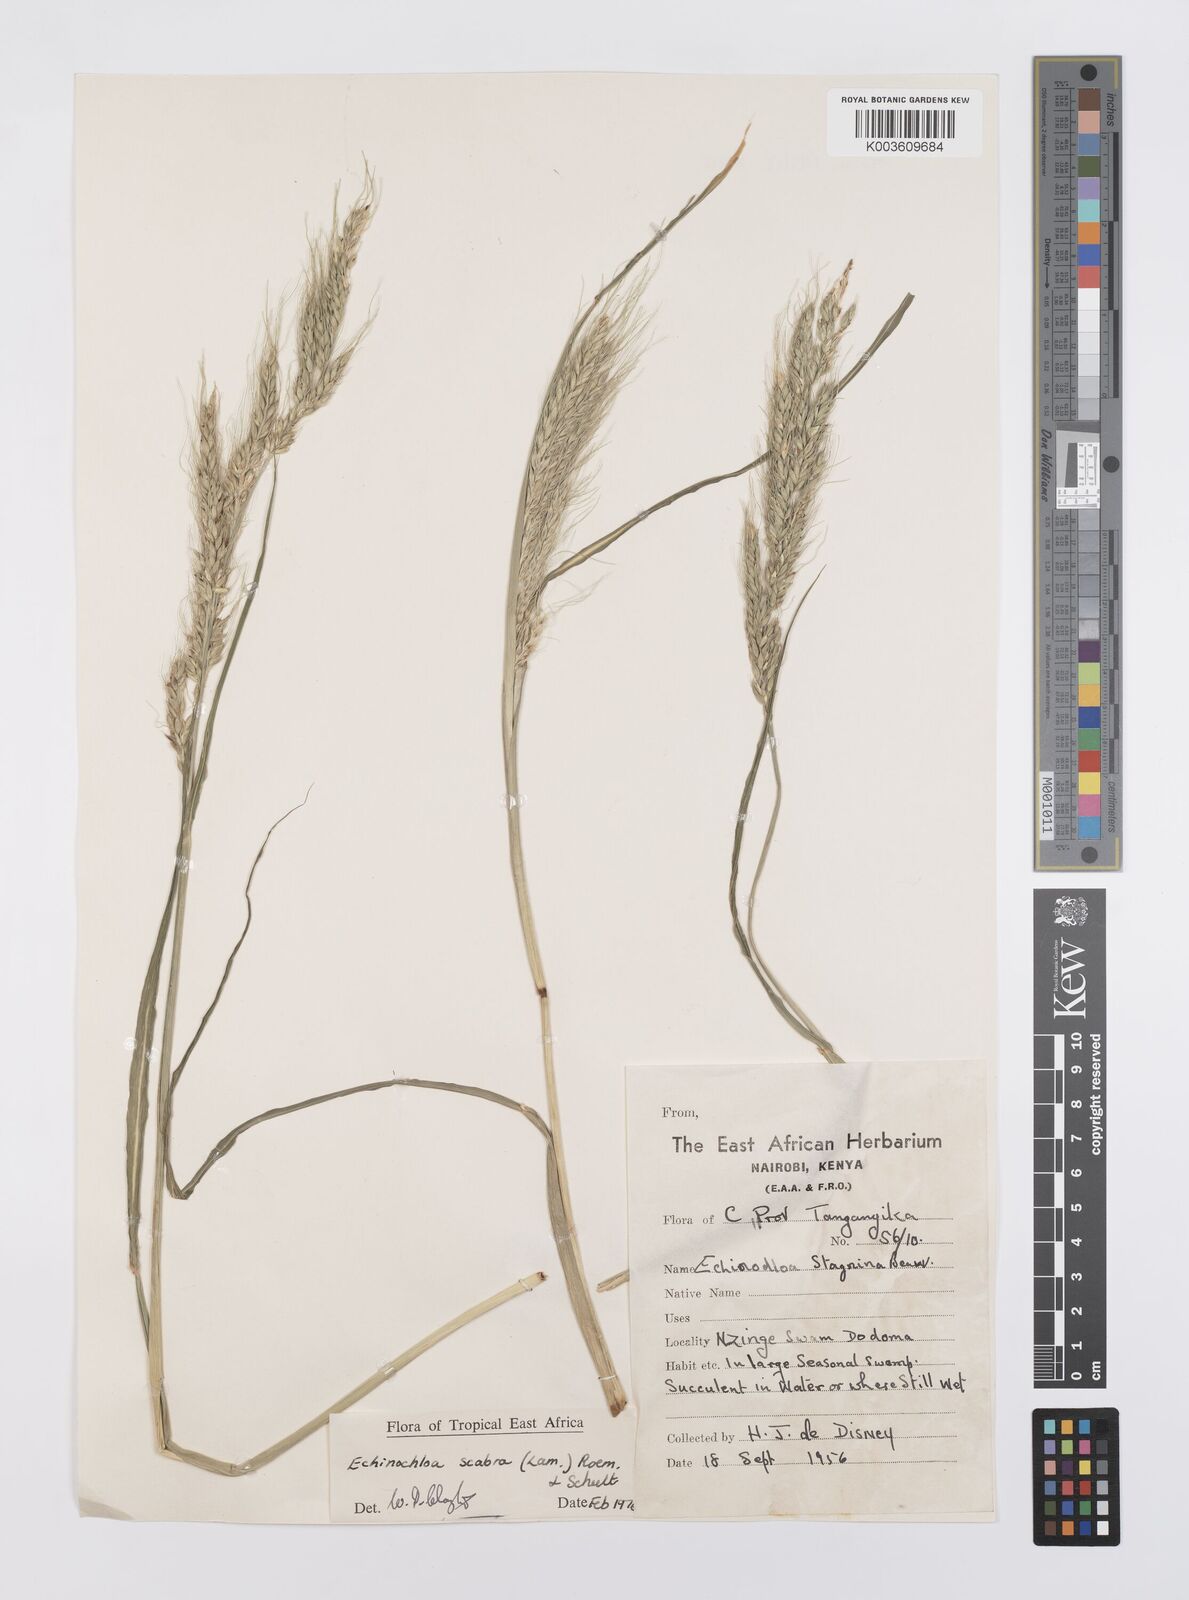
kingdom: Plantae
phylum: Tracheophyta
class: Liliopsida
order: Poales
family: Poaceae
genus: Echinochloa
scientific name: Echinochloa stagnina
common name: Burgu grass
